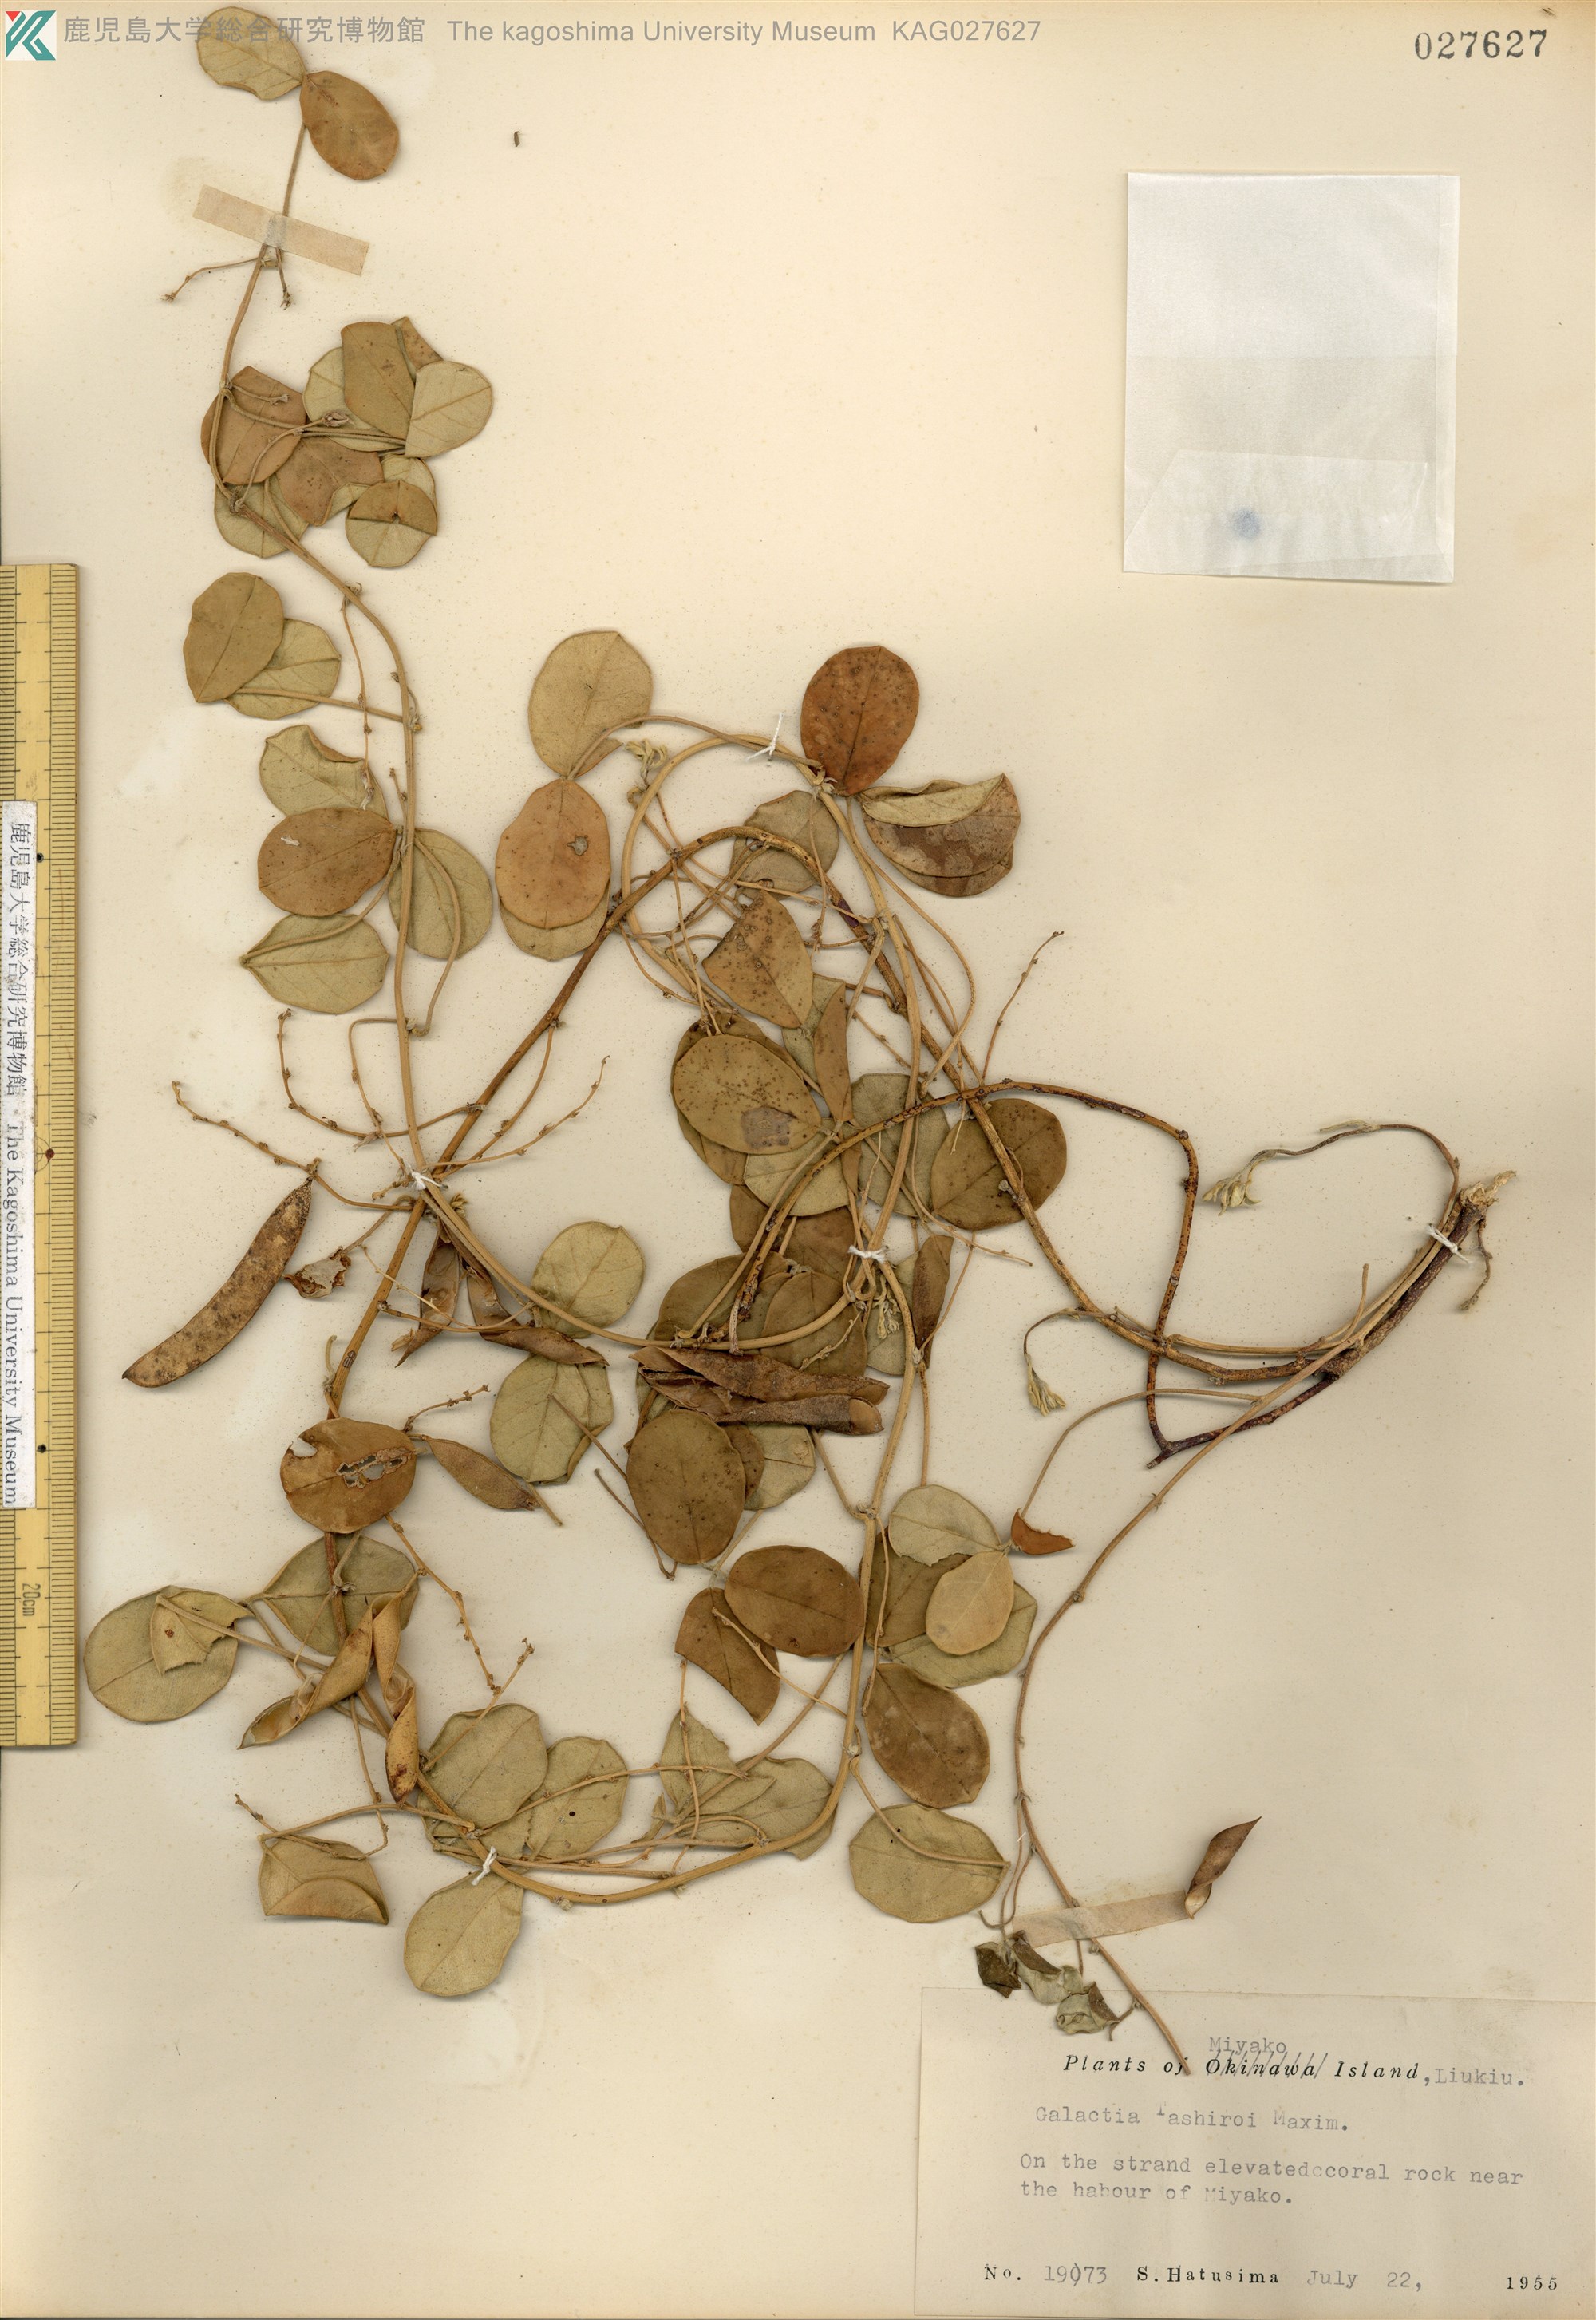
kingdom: Plantae
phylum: Tracheophyta
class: Magnoliopsida
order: Fabales
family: Fabaceae
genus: Galactia
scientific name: Galactia tashiroi
